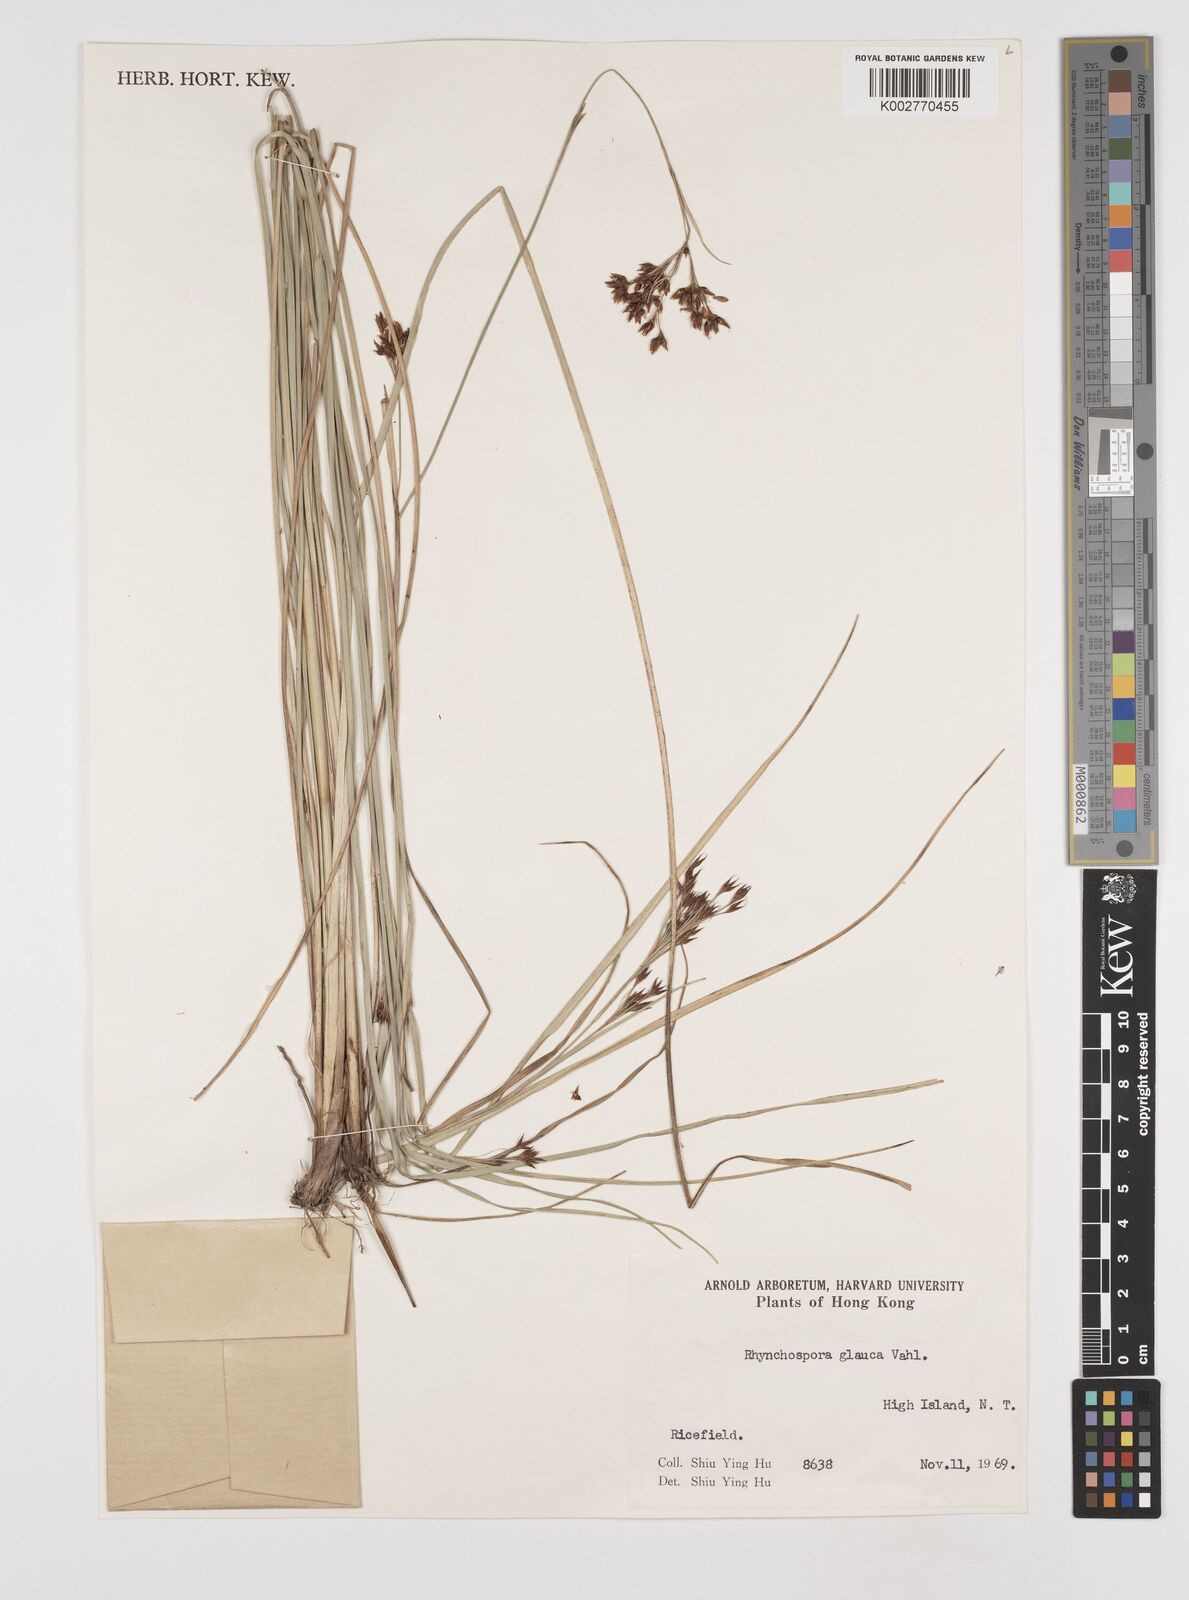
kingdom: Plantae
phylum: Tracheophyta
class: Liliopsida
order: Poales
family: Cyperaceae
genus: Rhynchospora
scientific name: Rhynchospora
